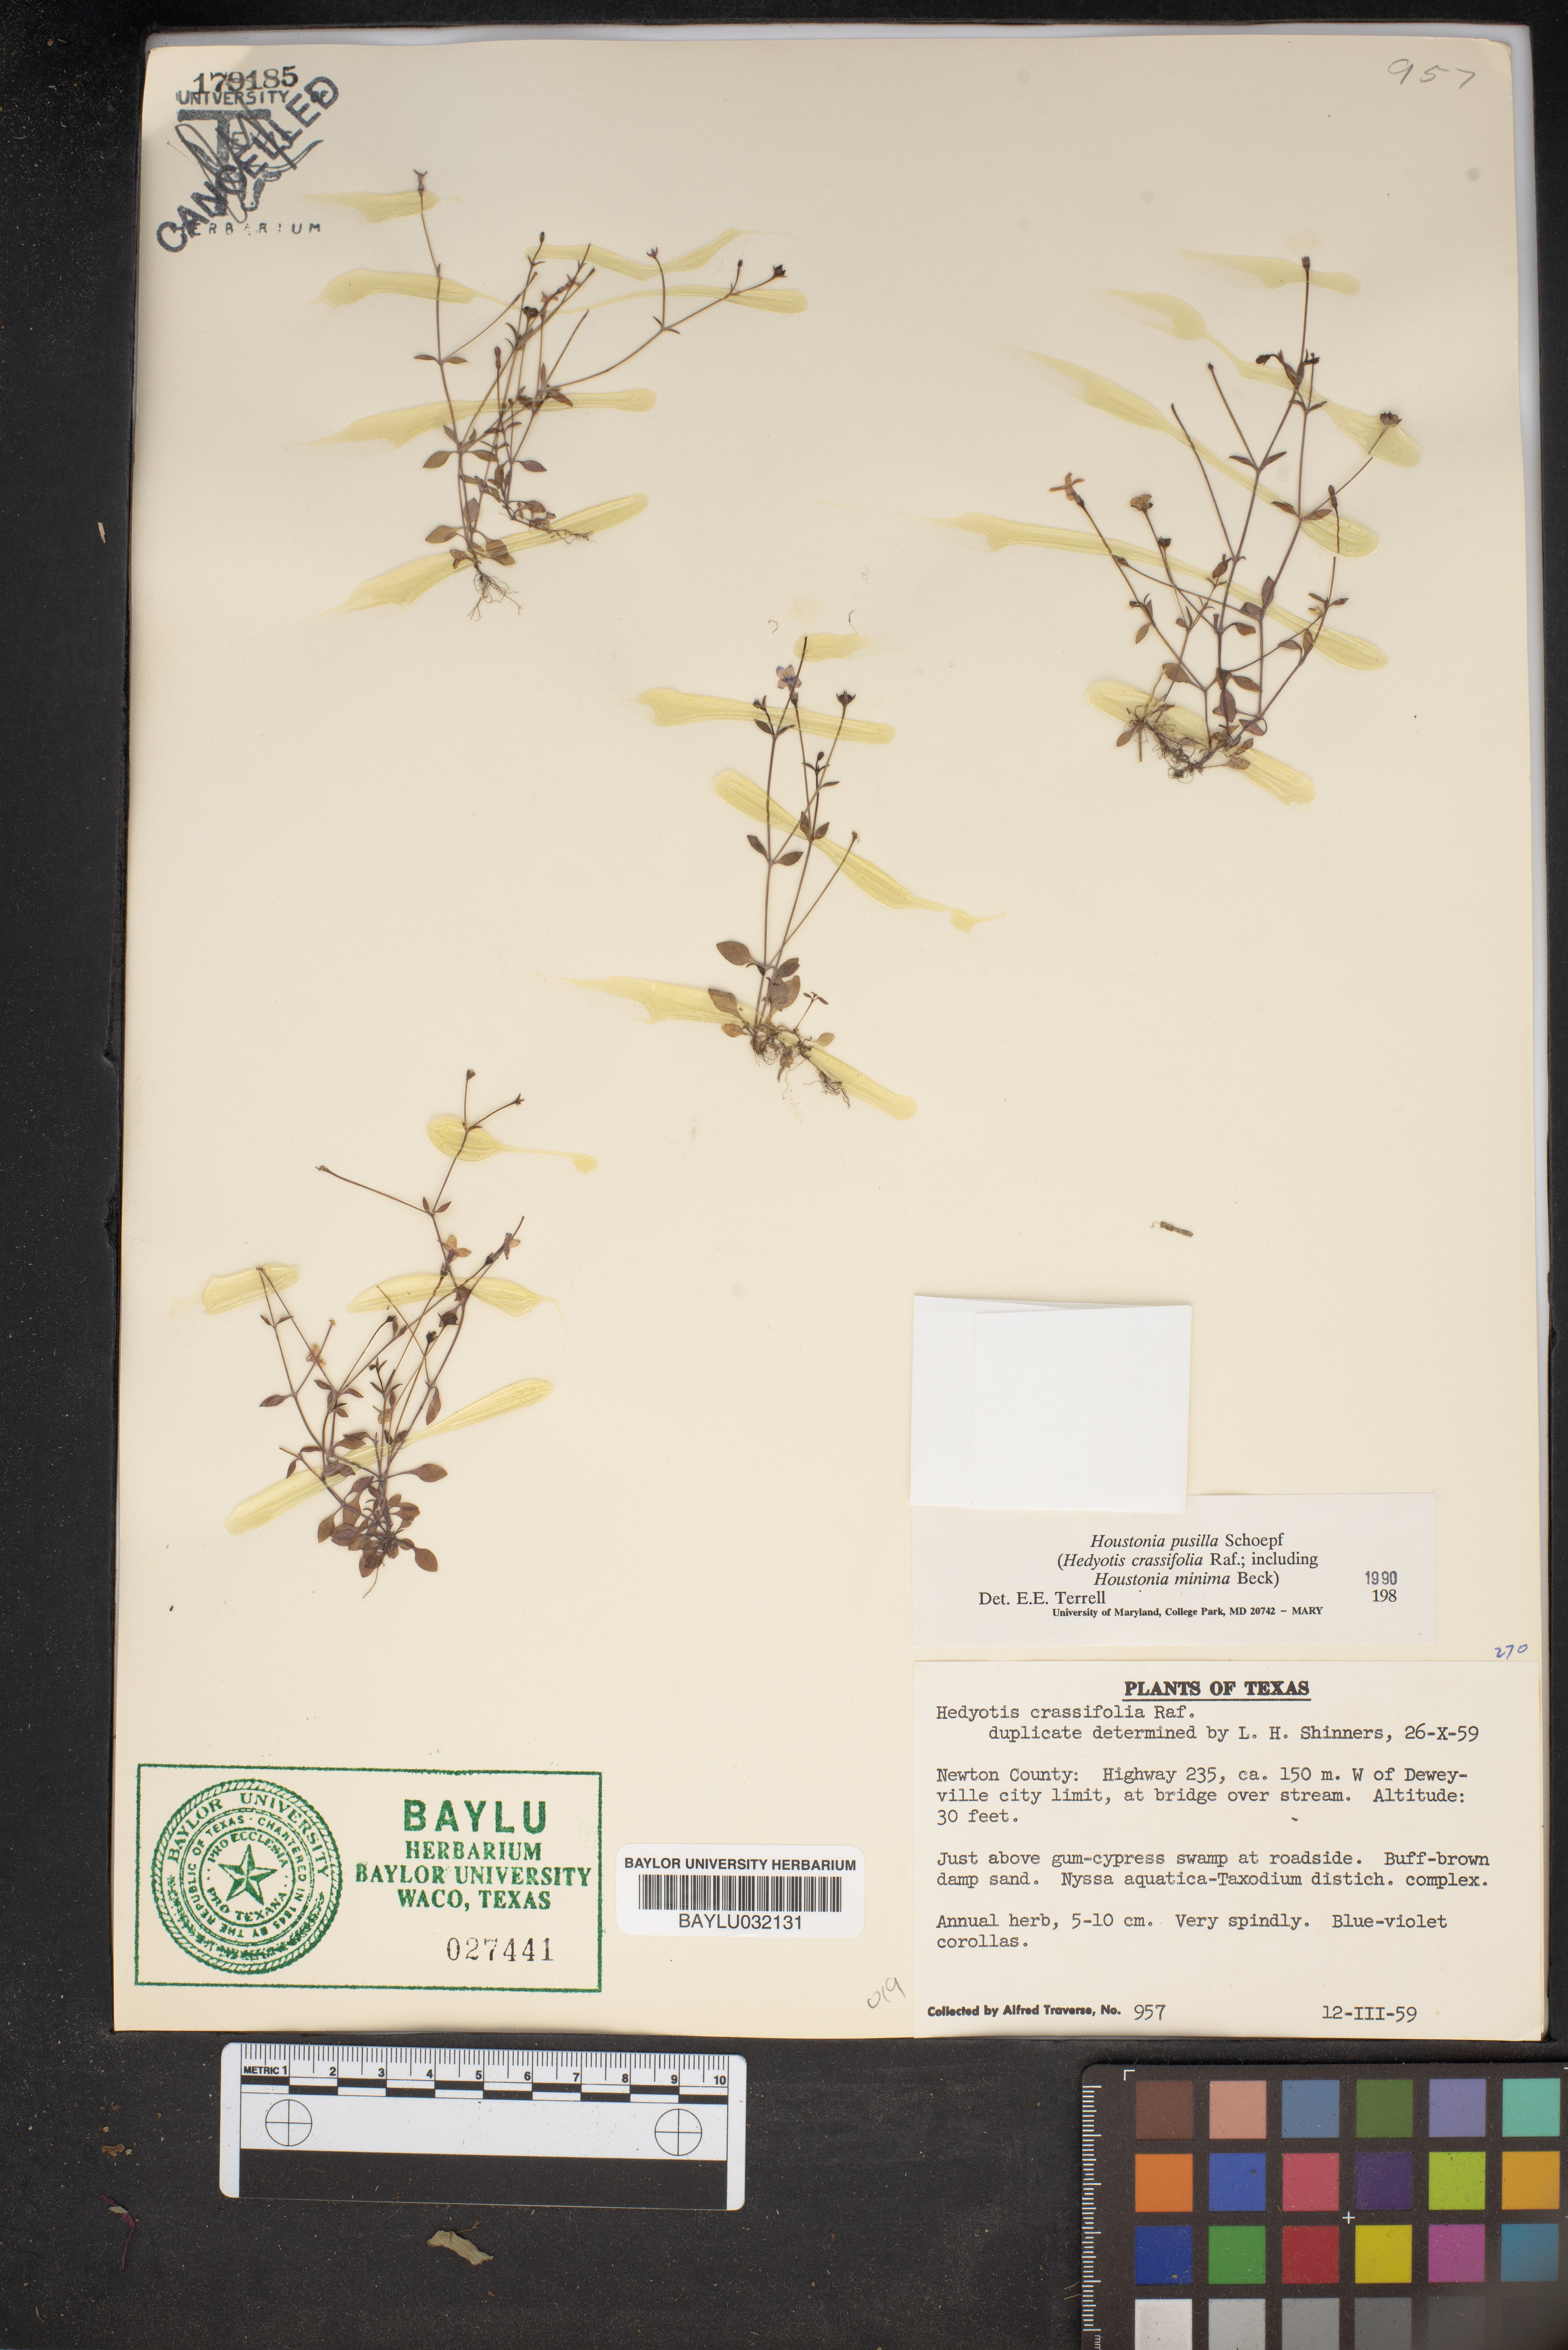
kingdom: Plantae
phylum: Tracheophyta
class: Magnoliopsida
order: Gentianales
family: Rubiaceae
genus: Houstonia
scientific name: Houstonia pusilla
